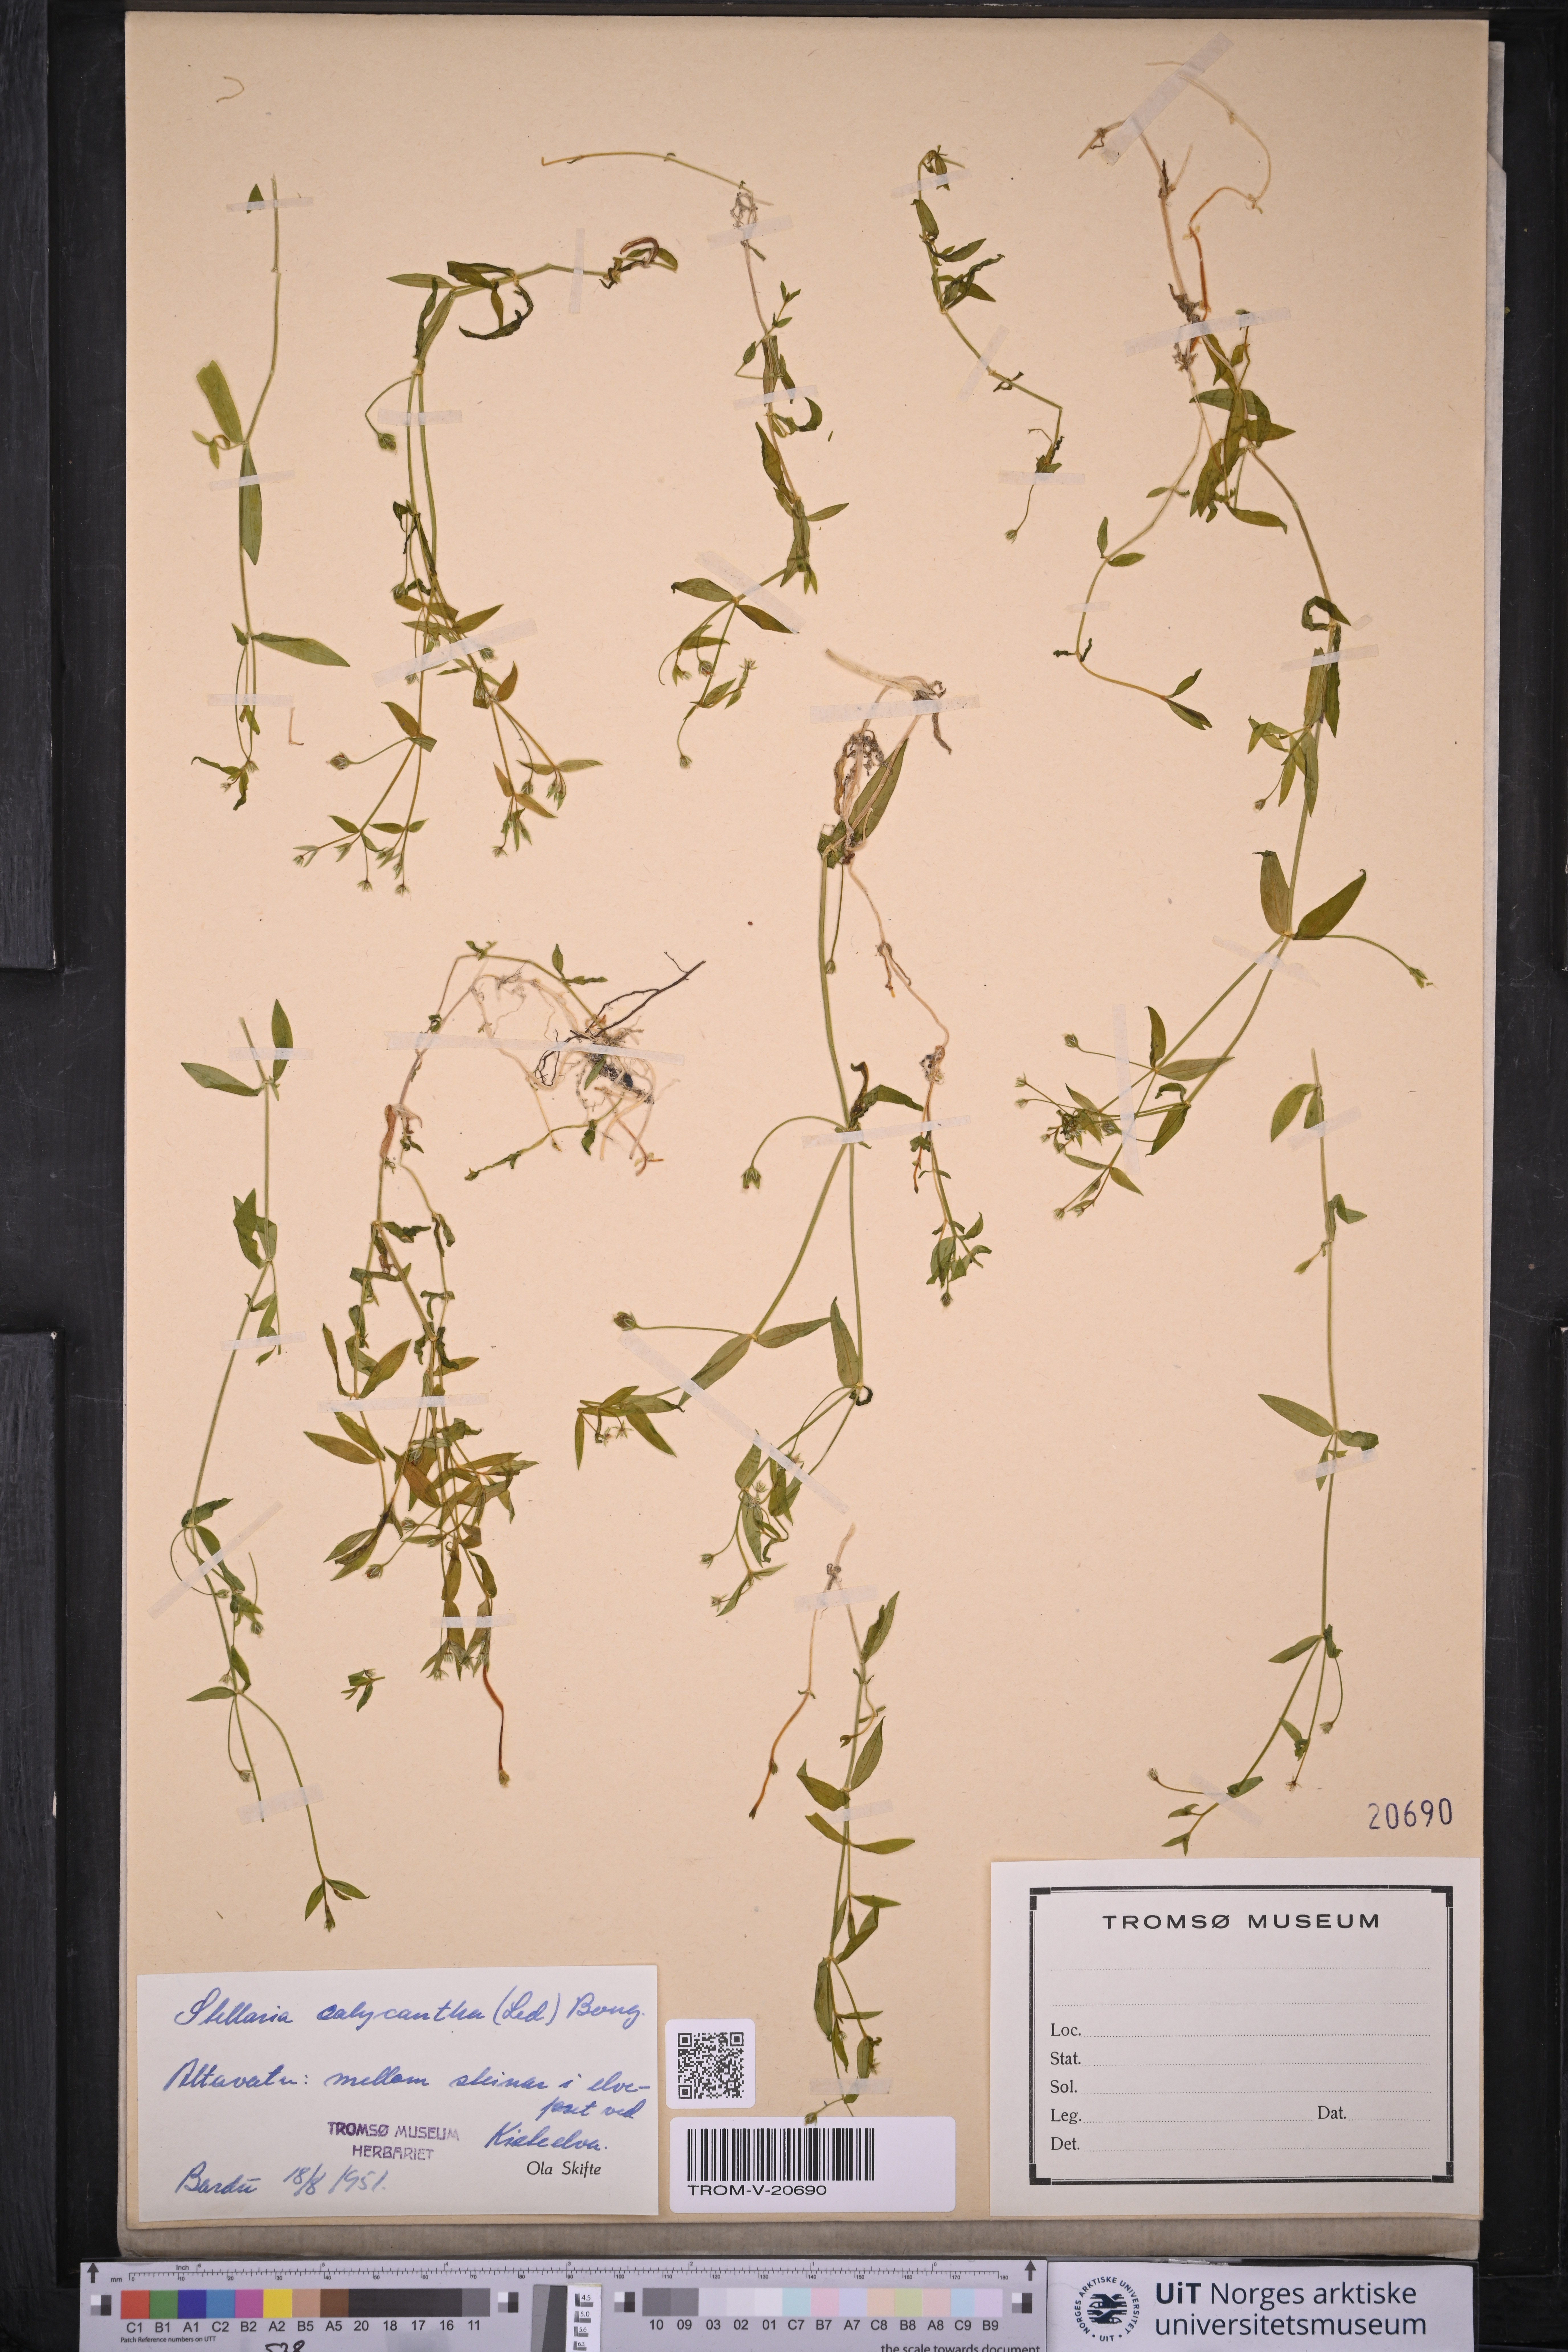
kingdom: Plantae
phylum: Tracheophyta
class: Magnoliopsida
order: Caryophyllales
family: Caryophyllaceae
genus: Stellaria
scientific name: Stellaria borealis
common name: Boreal starwort
